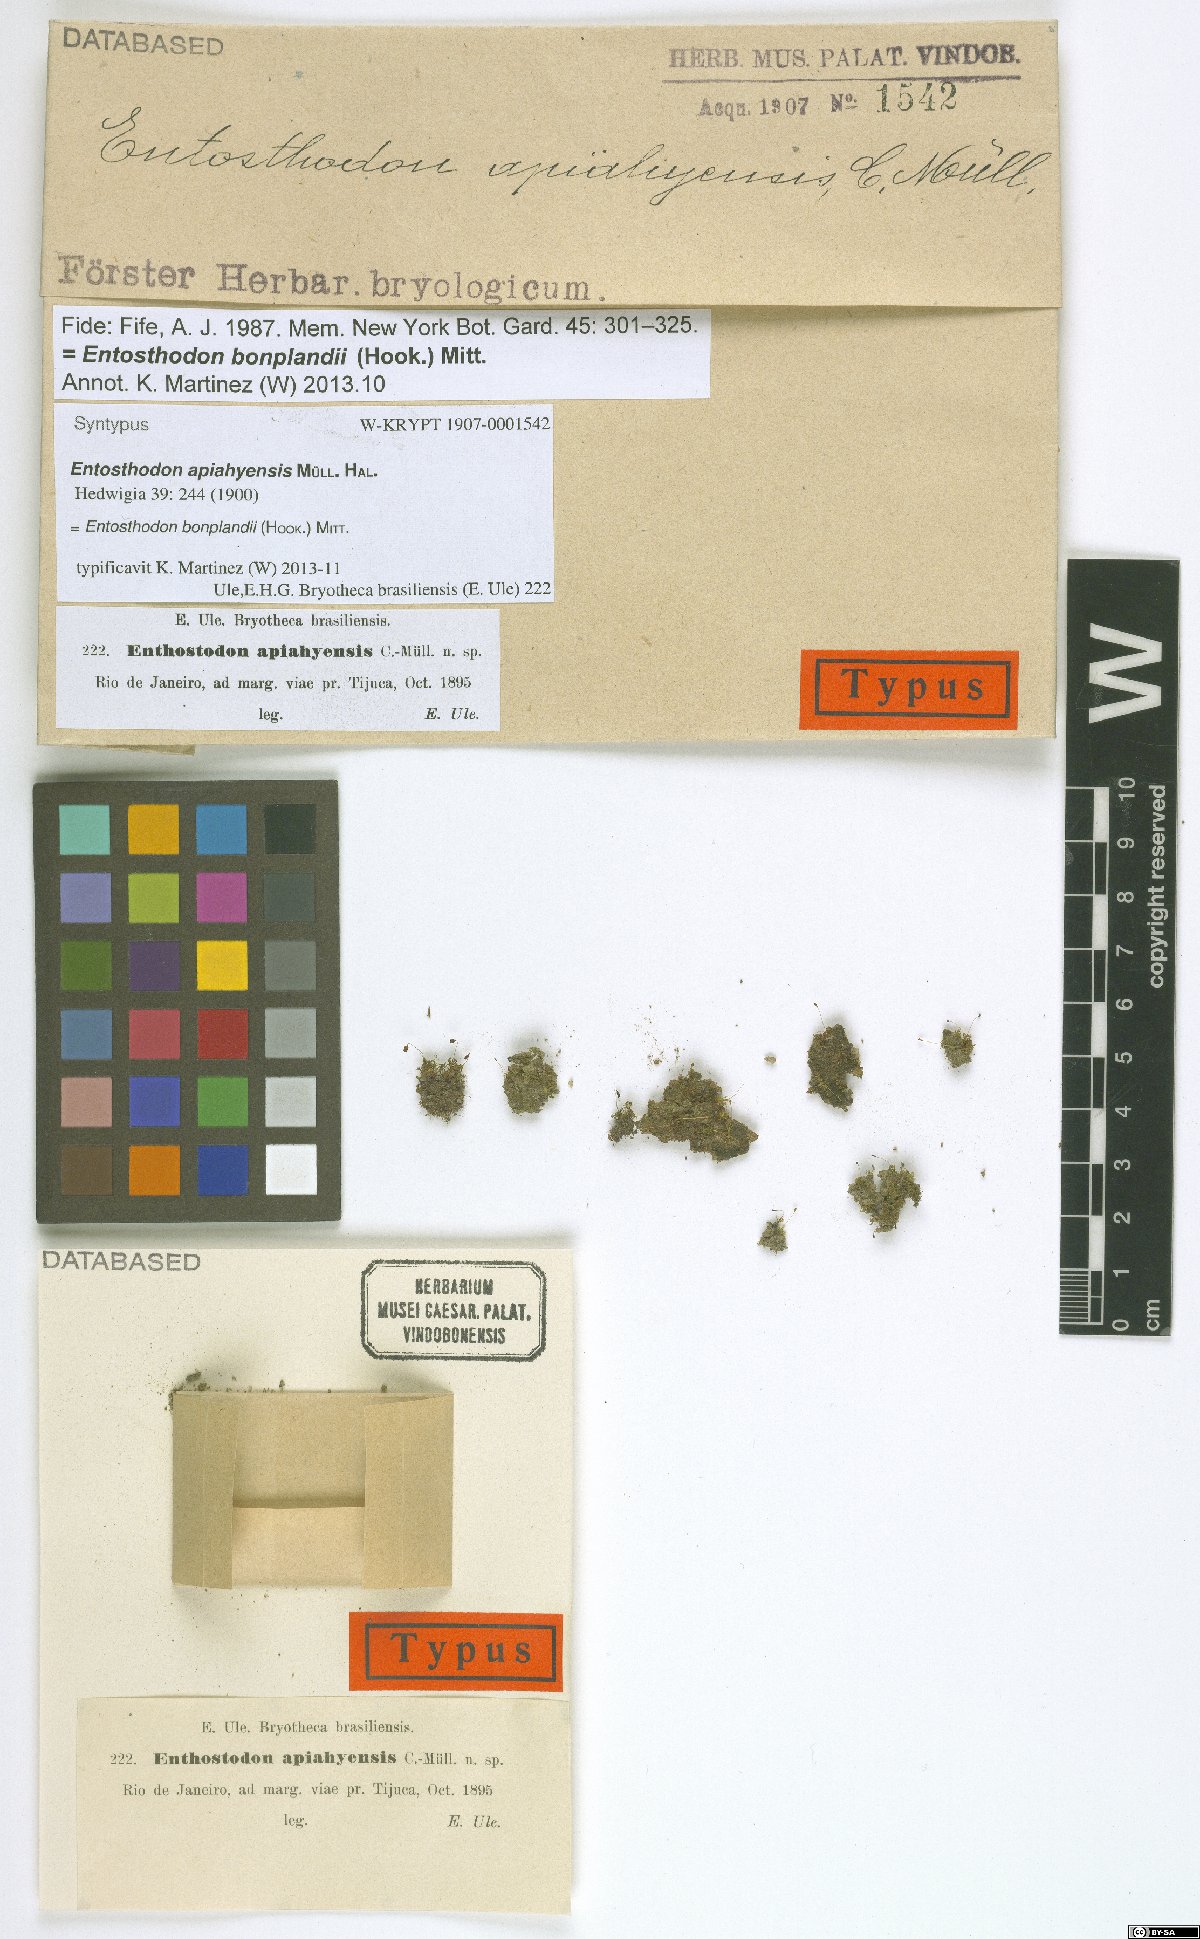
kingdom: Plantae
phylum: Bryophyta
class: Bryopsida
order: Funariales
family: Funariaceae
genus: Entosthodon
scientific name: Entosthodon bonplandii
